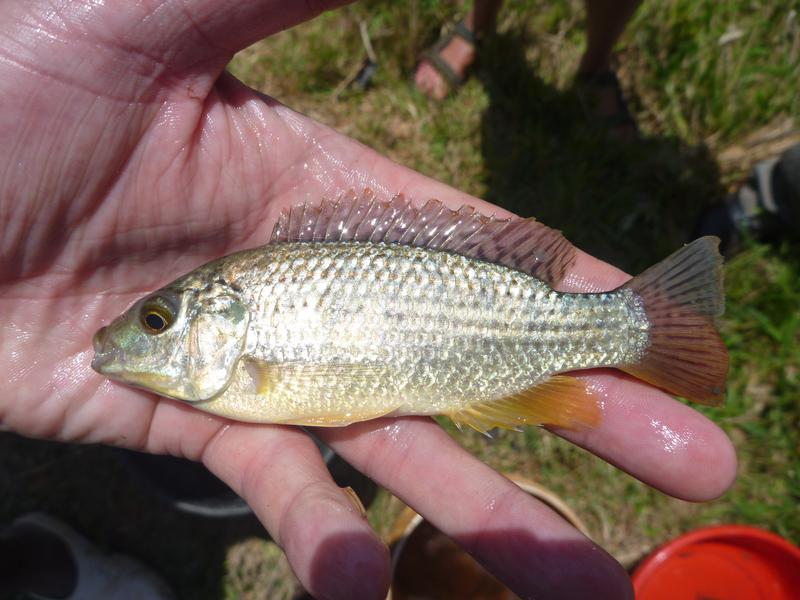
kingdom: Animalia
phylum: Chordata
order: Perciformes
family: Cichlidae
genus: Oreochromis
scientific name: Oreochromis
